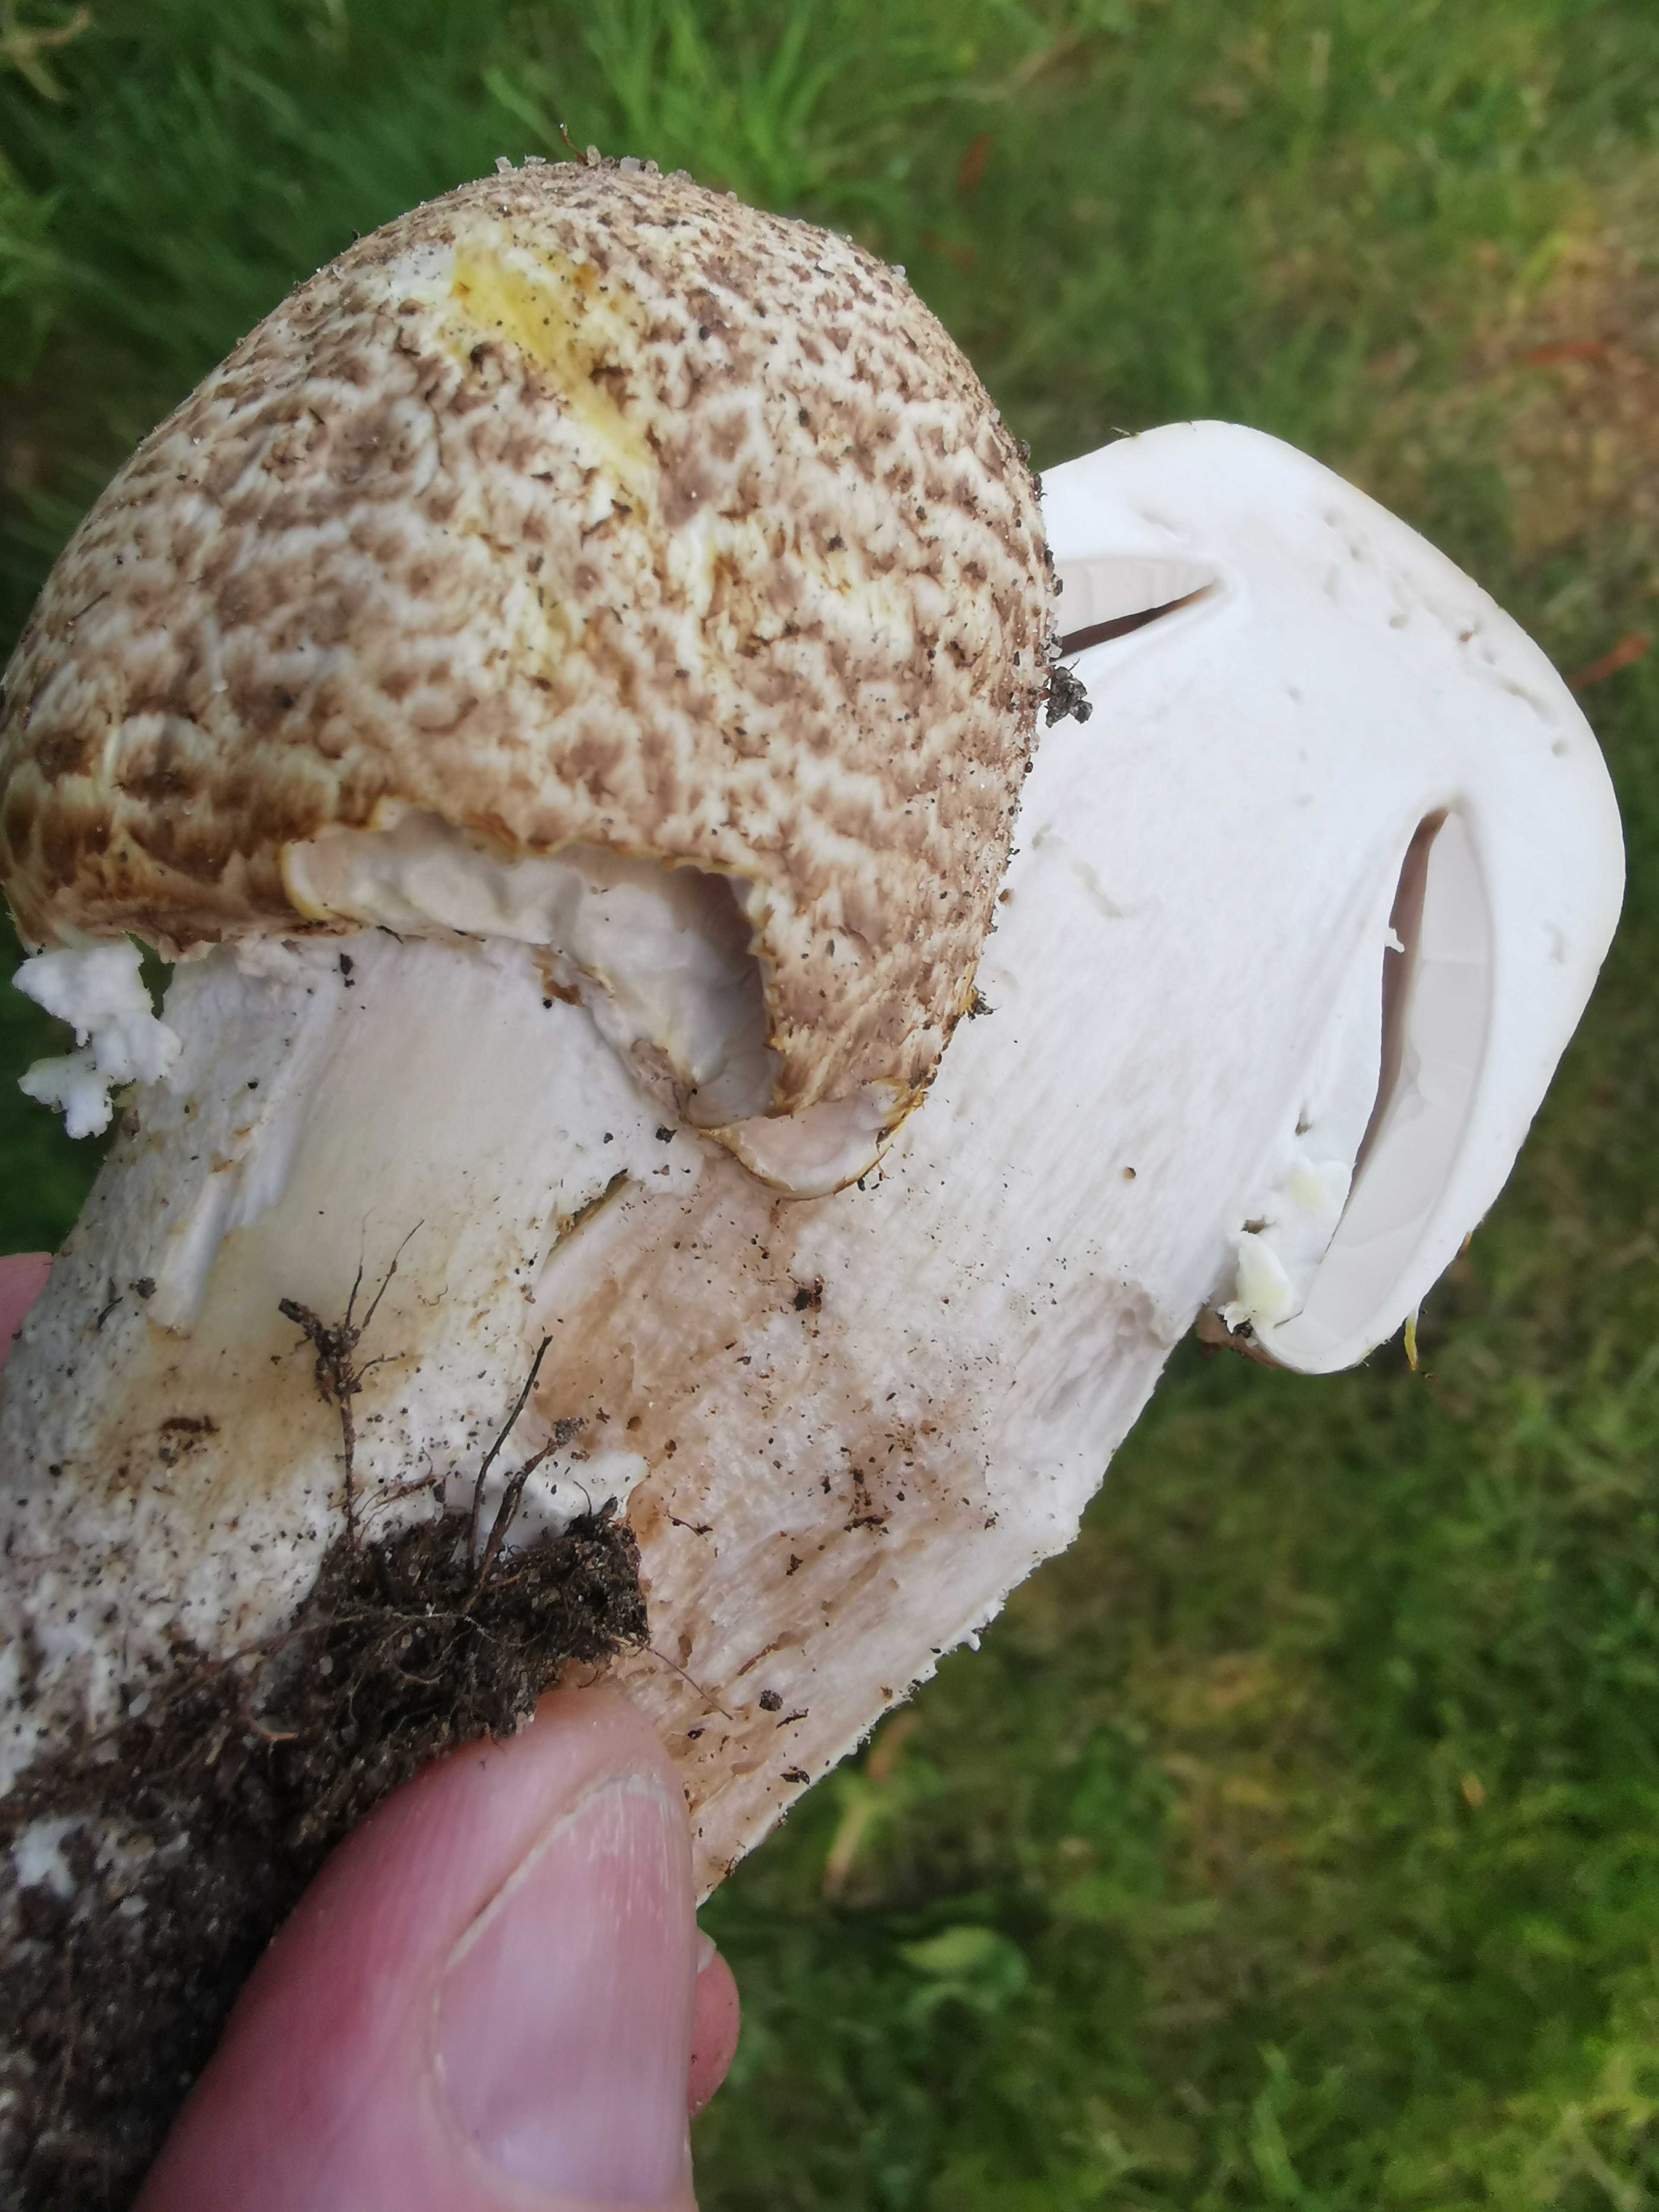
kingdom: Fungi
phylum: Basidiomycota
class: Agaricomycetes
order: Agaricales
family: Agaricaceae
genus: Agaricus
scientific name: Agaricus augustus
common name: prægtig champignon
